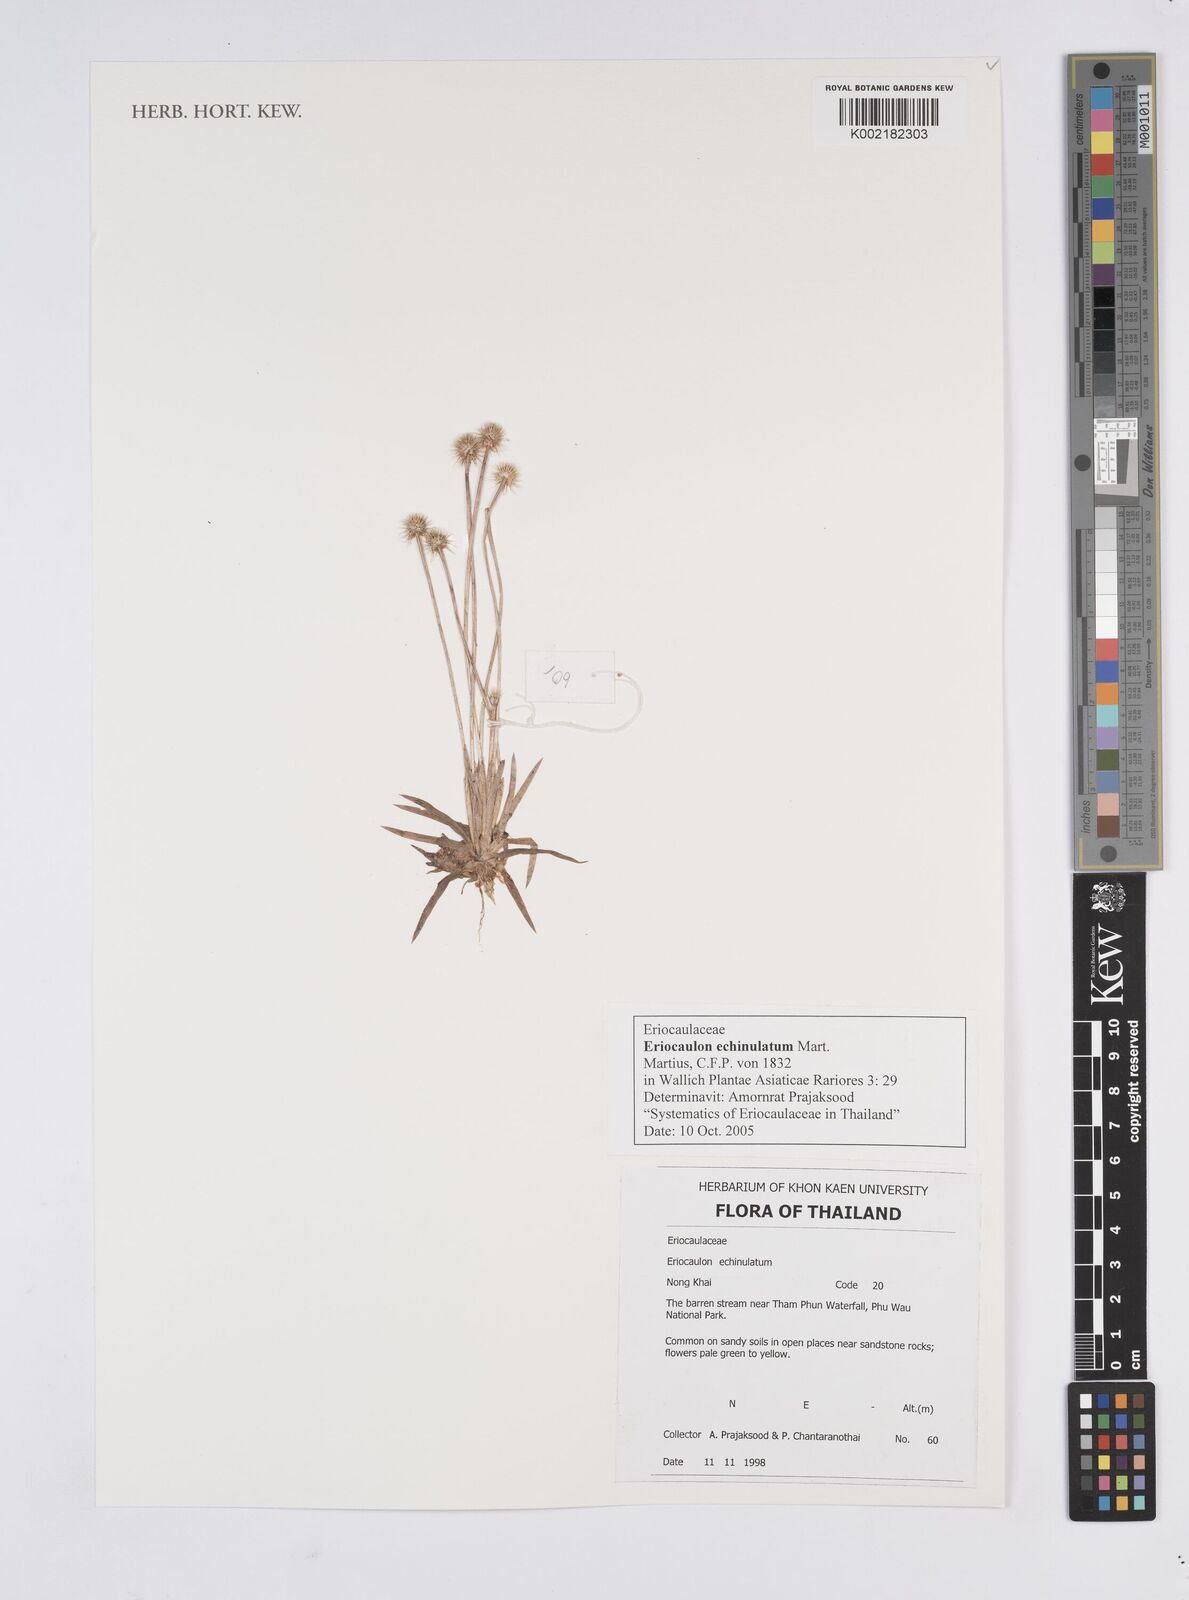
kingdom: Plantae
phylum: Tracheophyta
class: Liliopsida
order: Poales
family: Eriocaulaceae
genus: Eriocaulon
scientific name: Eriocaulon echinulatum
